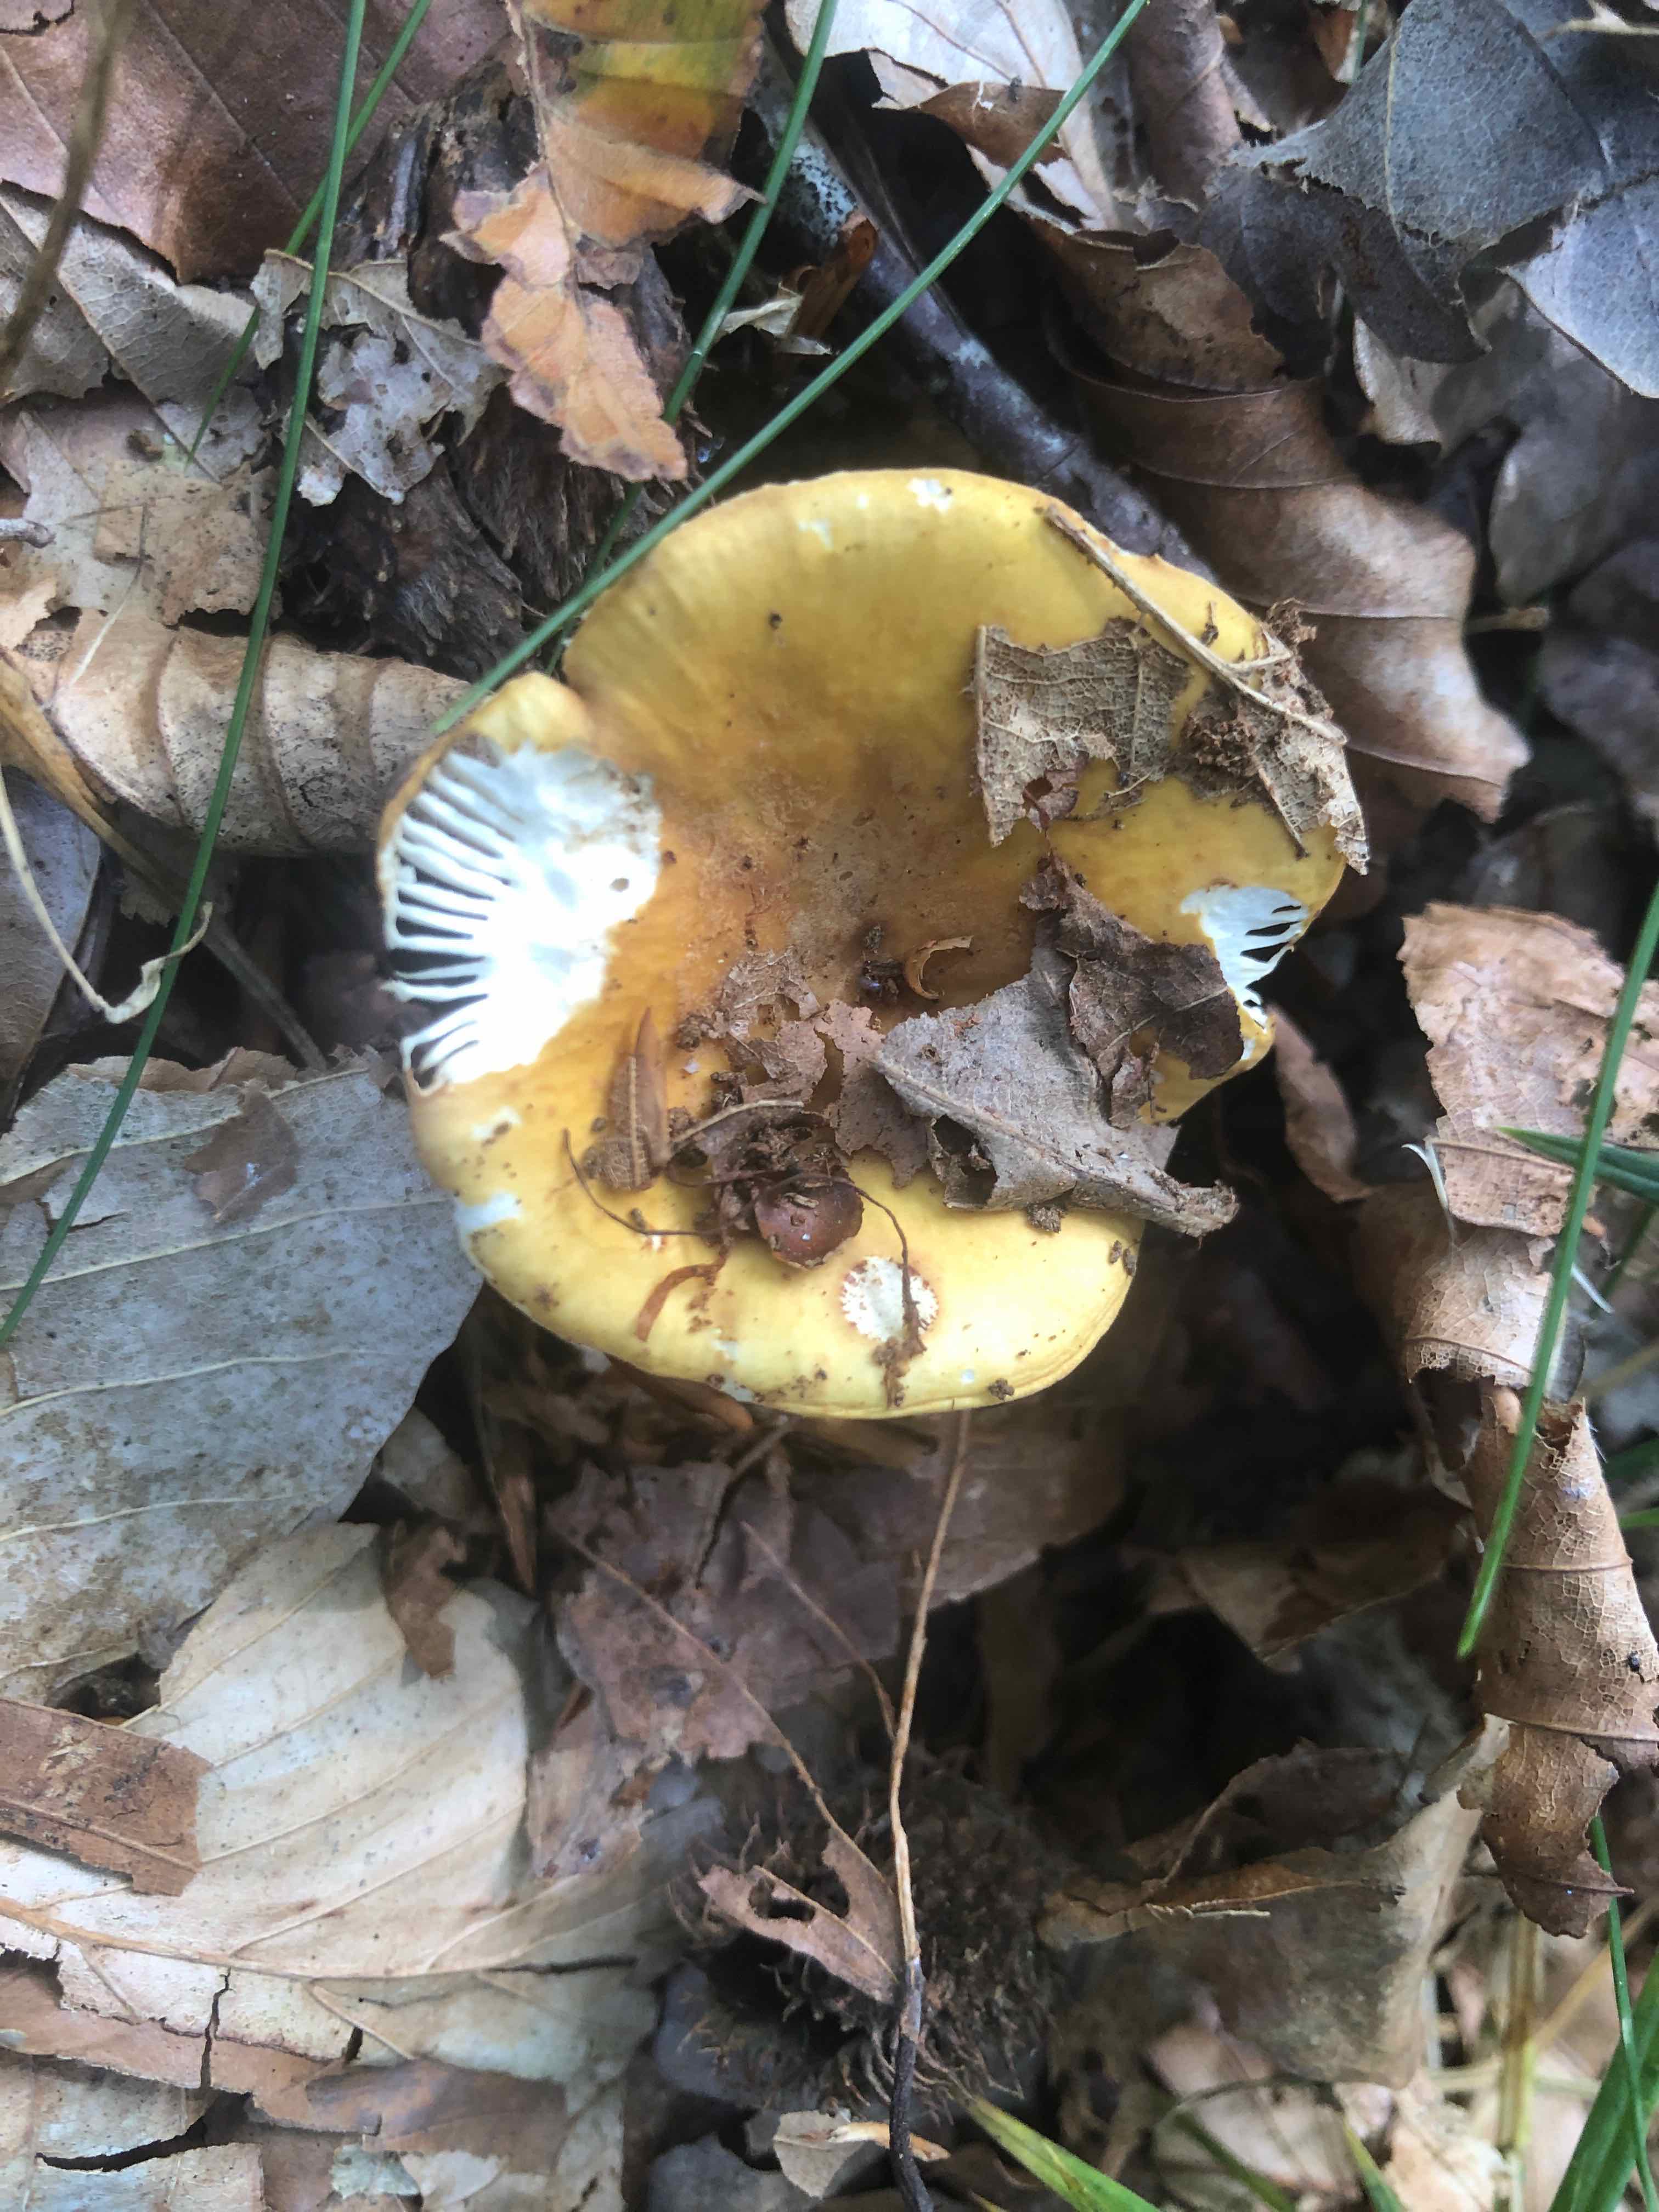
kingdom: Fungi
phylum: Basidiomycota
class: Agaricomycetes
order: Russulales
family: Russulaceae
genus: Russula
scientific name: Russula ochroleuca
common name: okkergul skørhat
